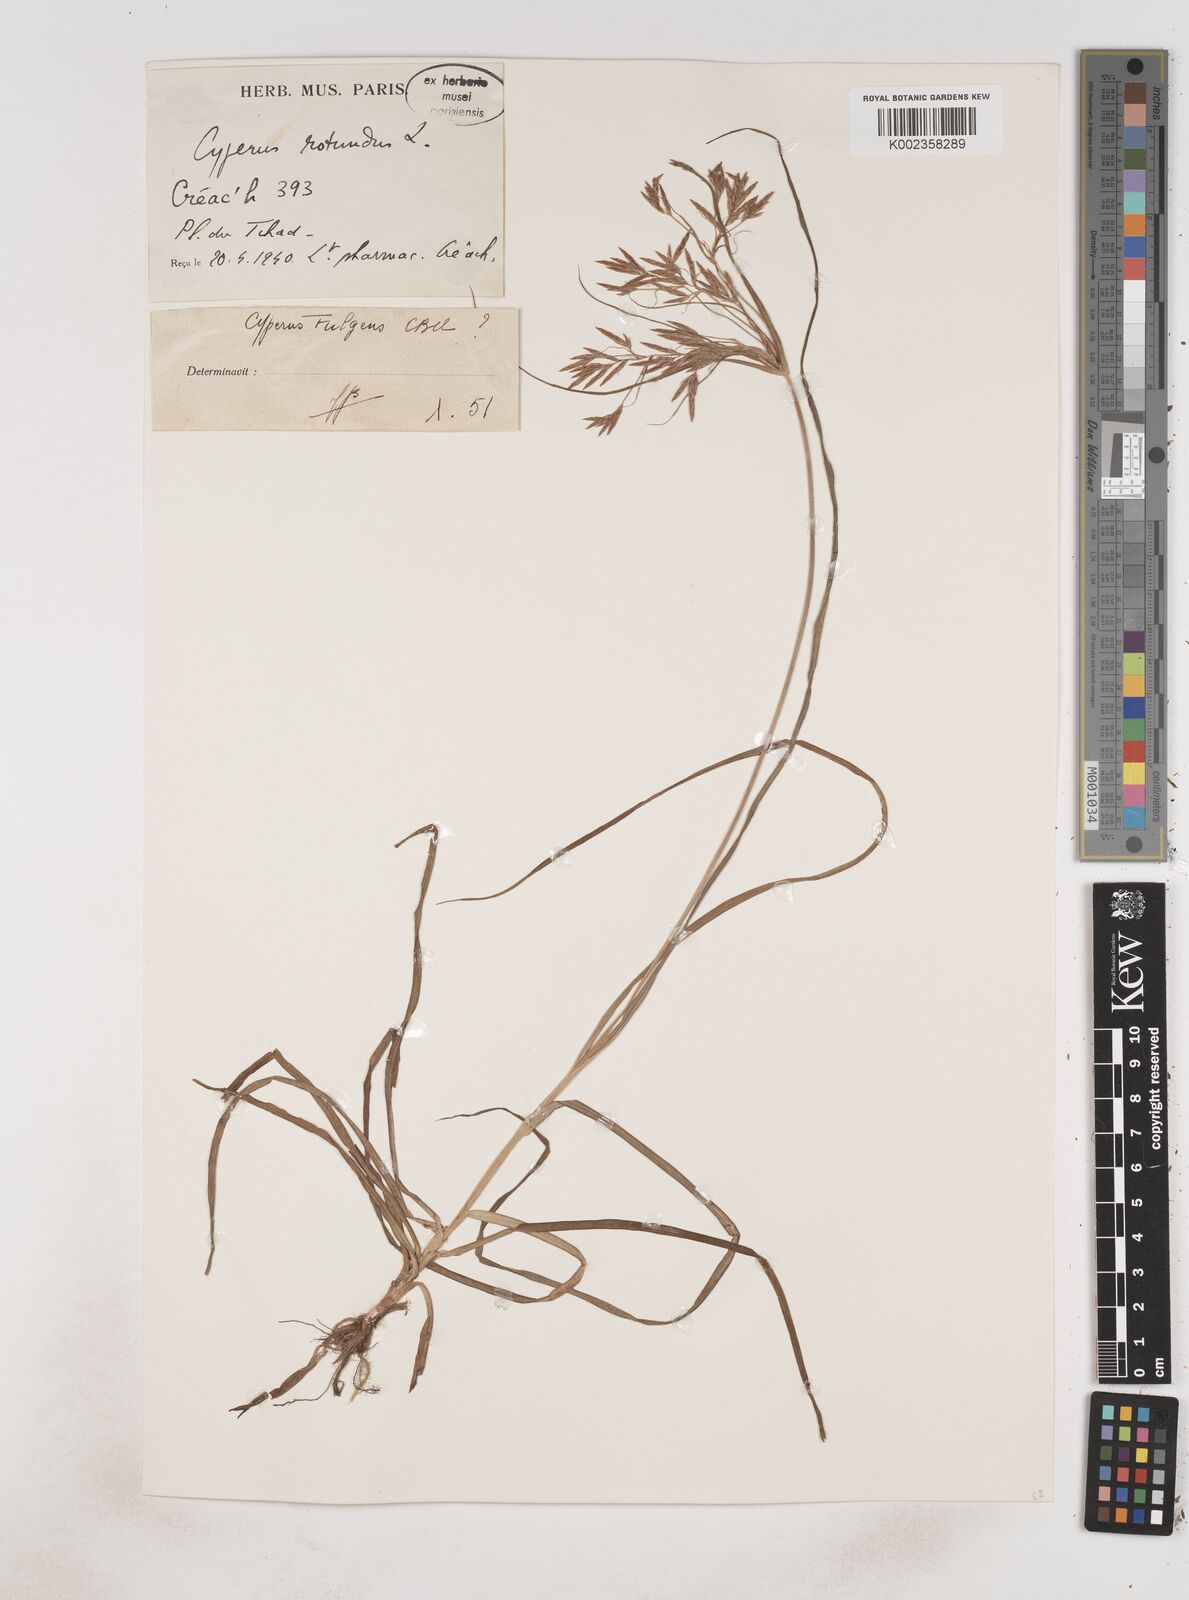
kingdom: Plantae
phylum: Tracheophyta
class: Liliopsida
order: Poales
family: Cyperaceae
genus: Cyperus
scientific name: Cyperus rotundus
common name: Nutgrass
